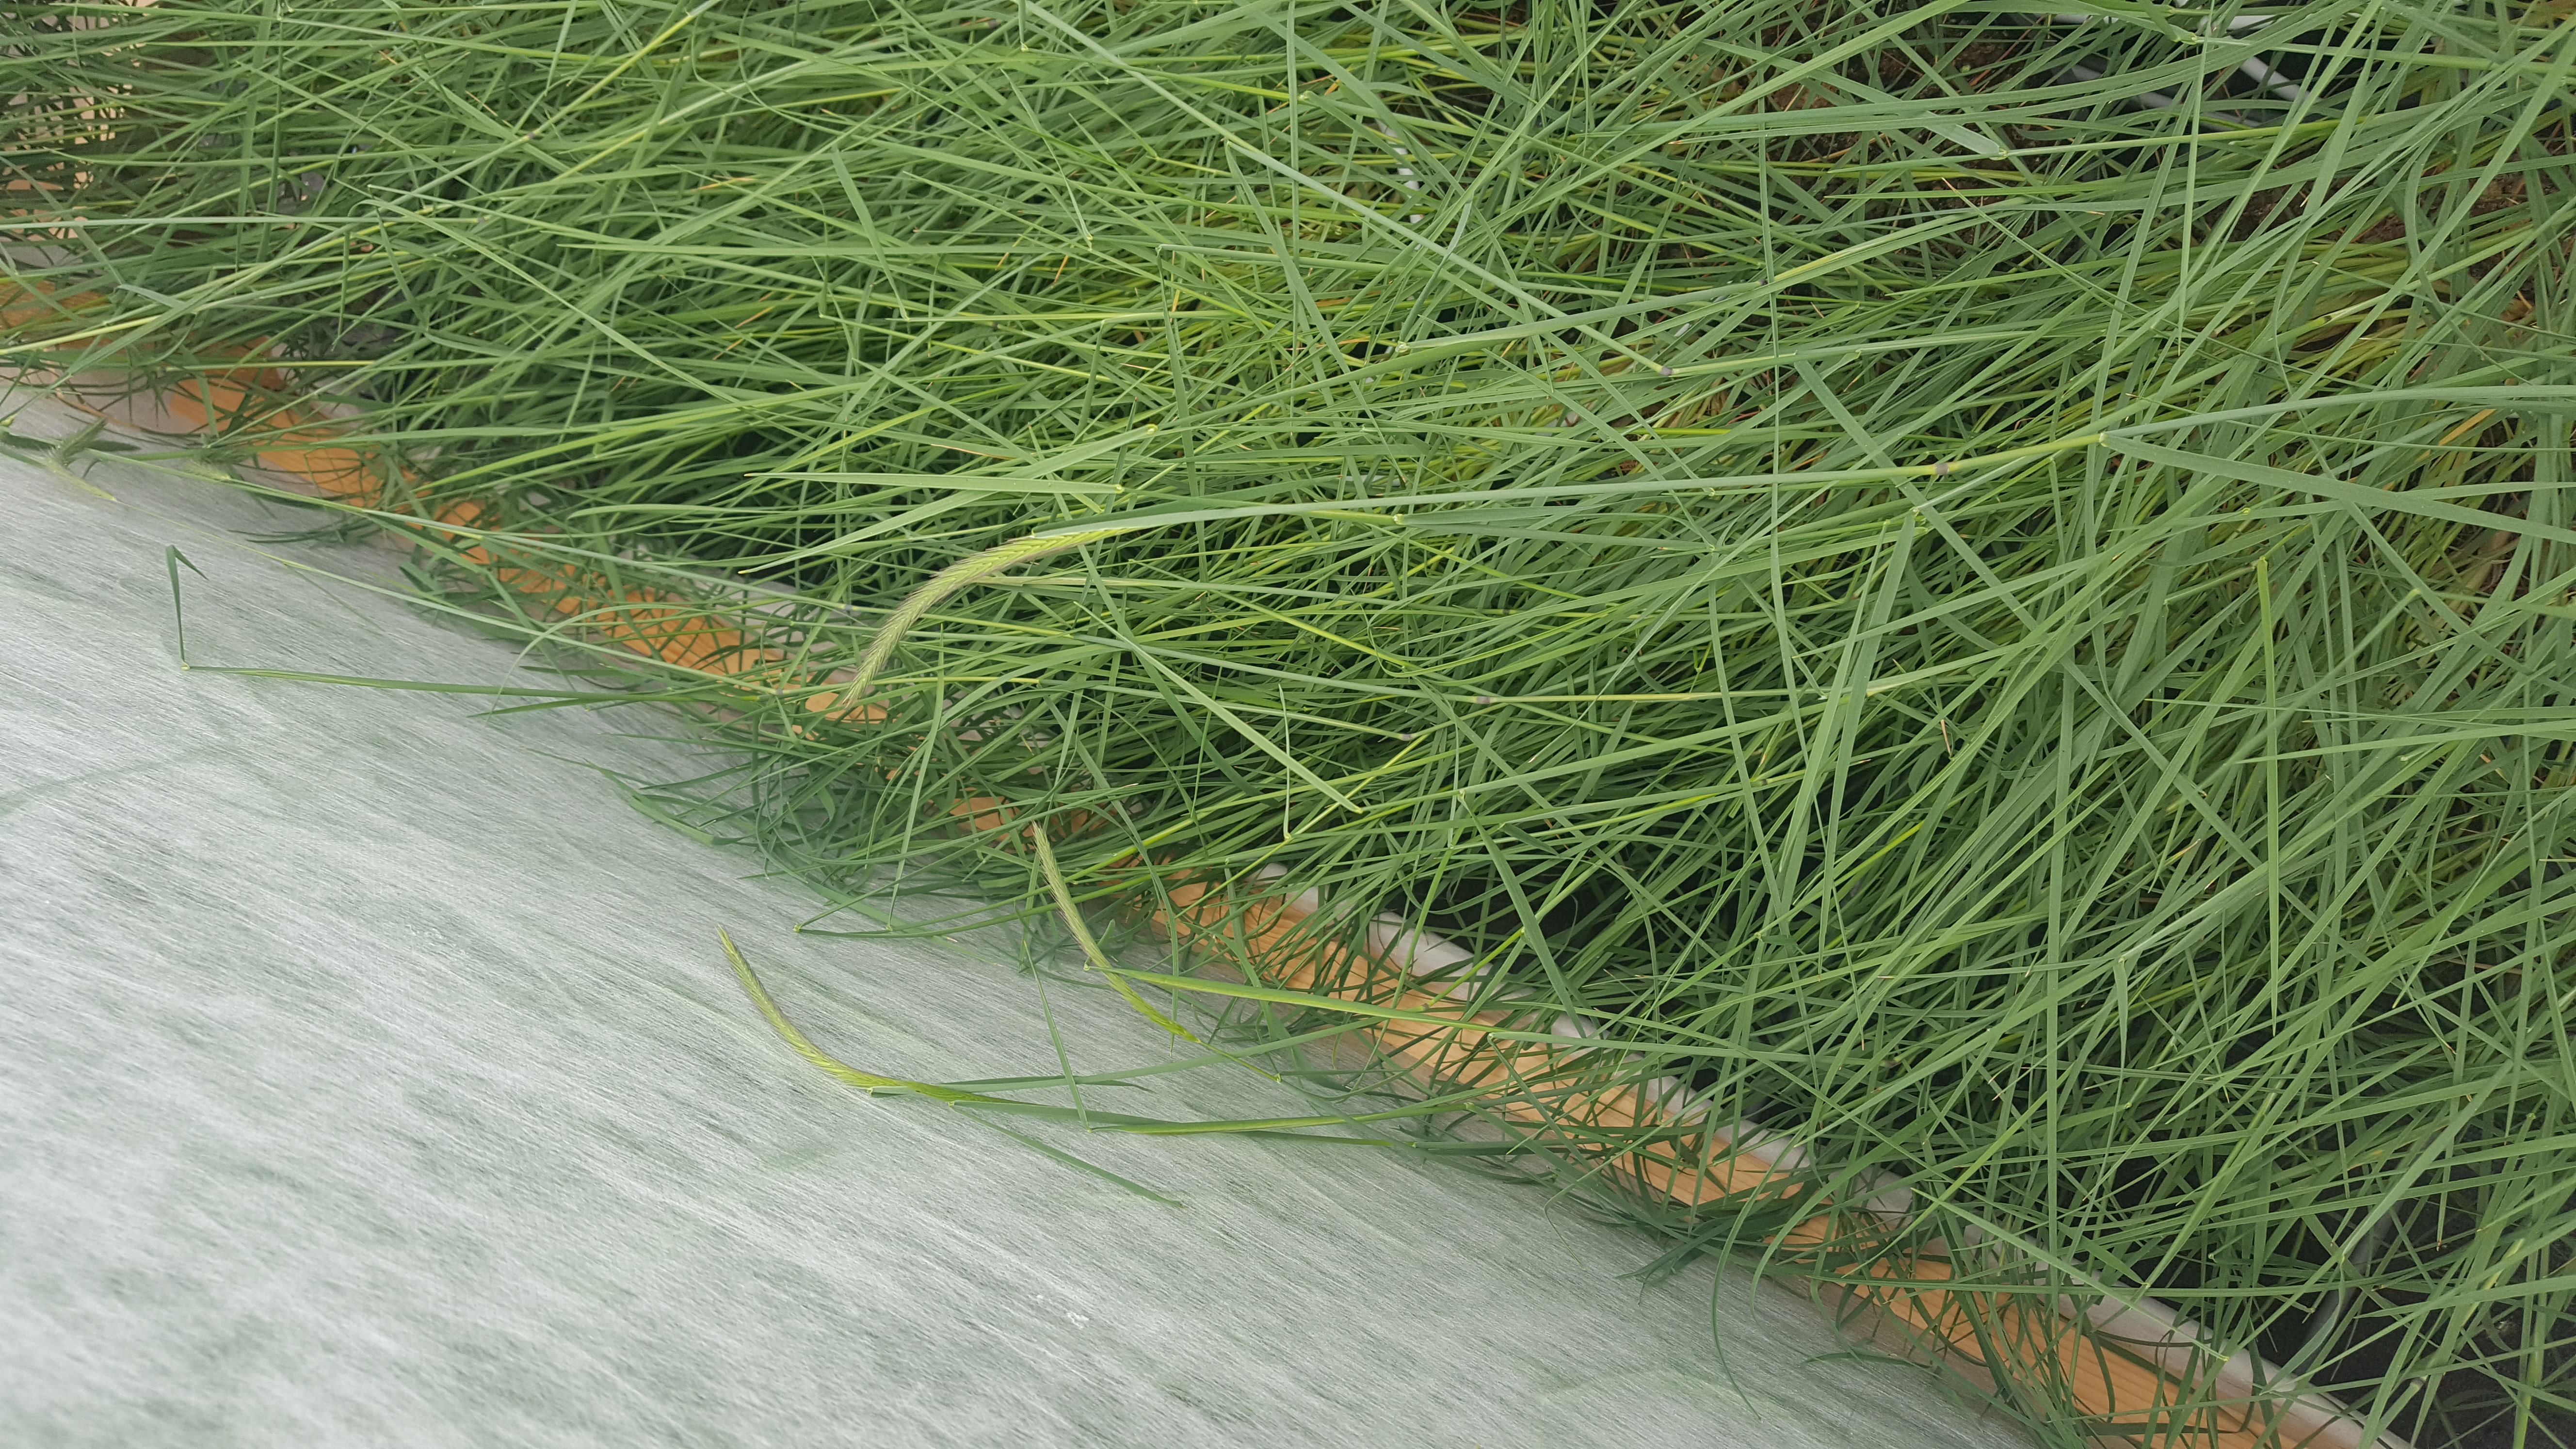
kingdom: Plantae
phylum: Tracheophyta
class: Liliopsida
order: Poales
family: Poaceae
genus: Hordeum
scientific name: Hordeum patagonicum
